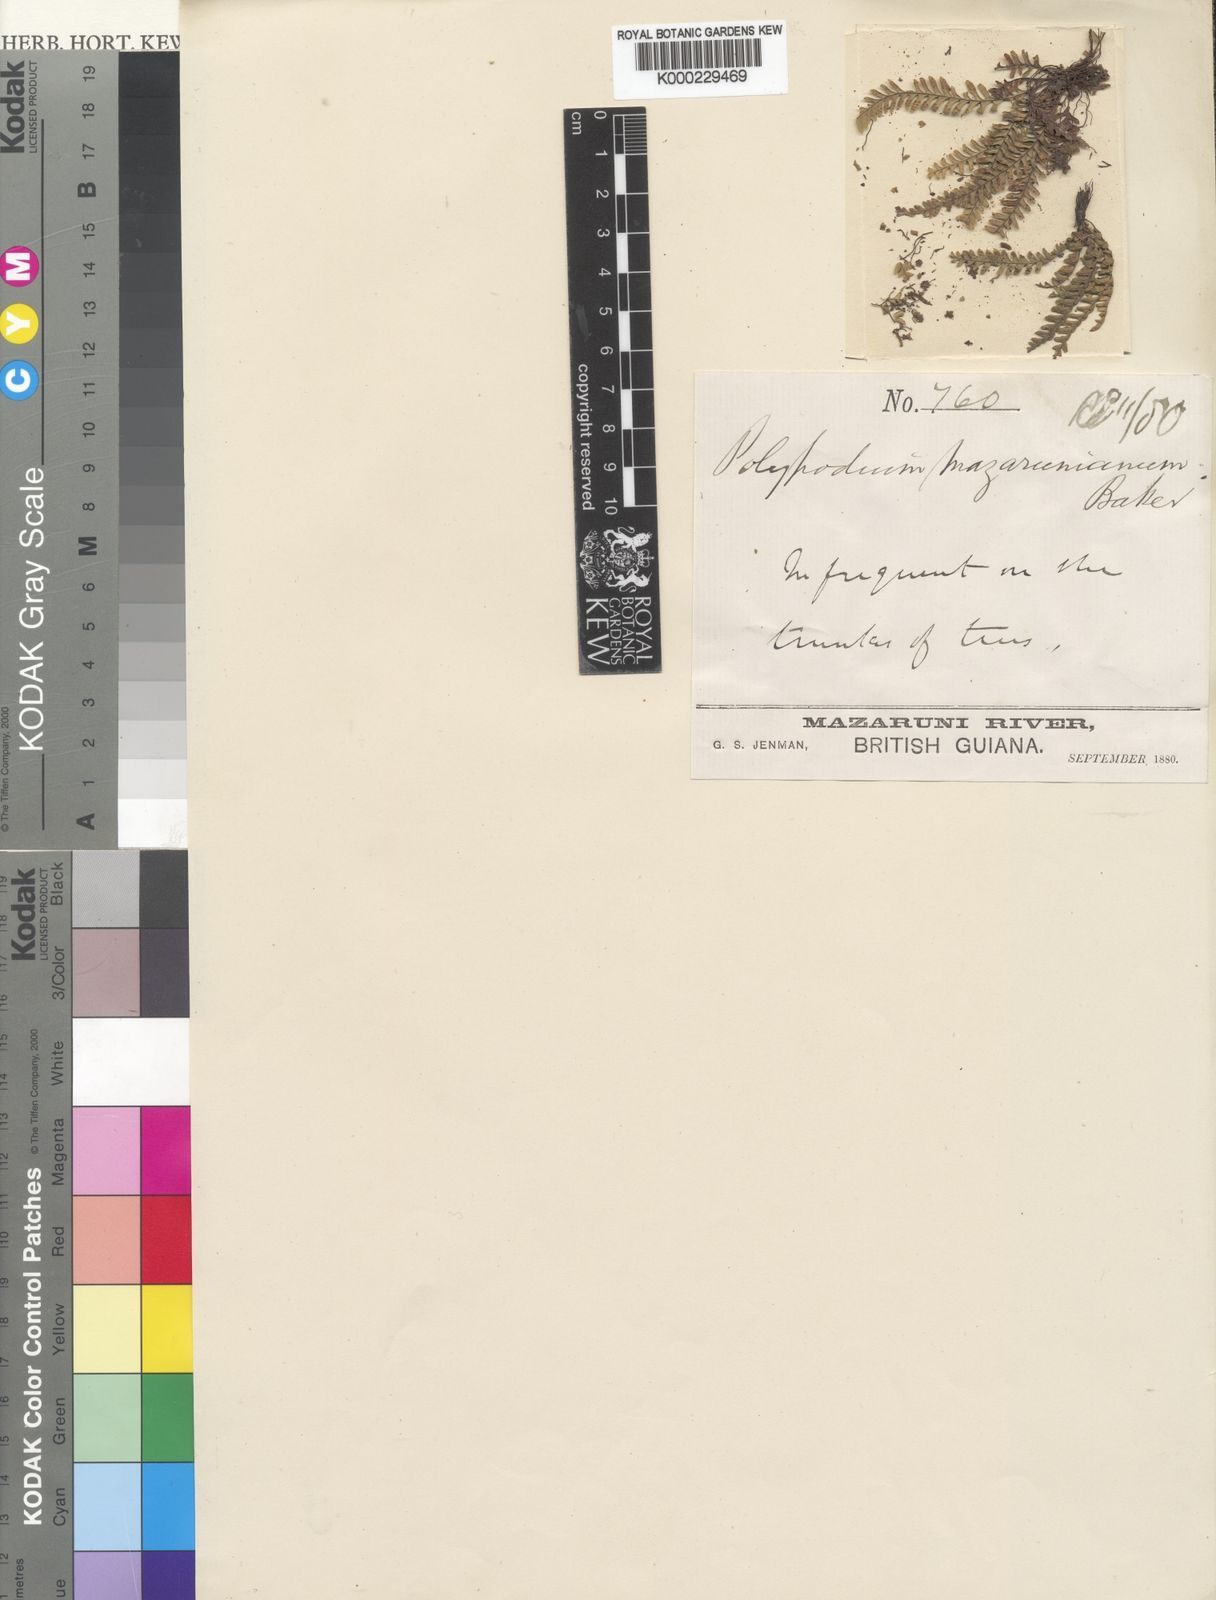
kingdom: Plantae
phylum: Tracheophyta
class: Polypodiopsida
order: Polypodiales
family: Polypodiaceae
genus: Lellingeria
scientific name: Lellingeria suspensa
